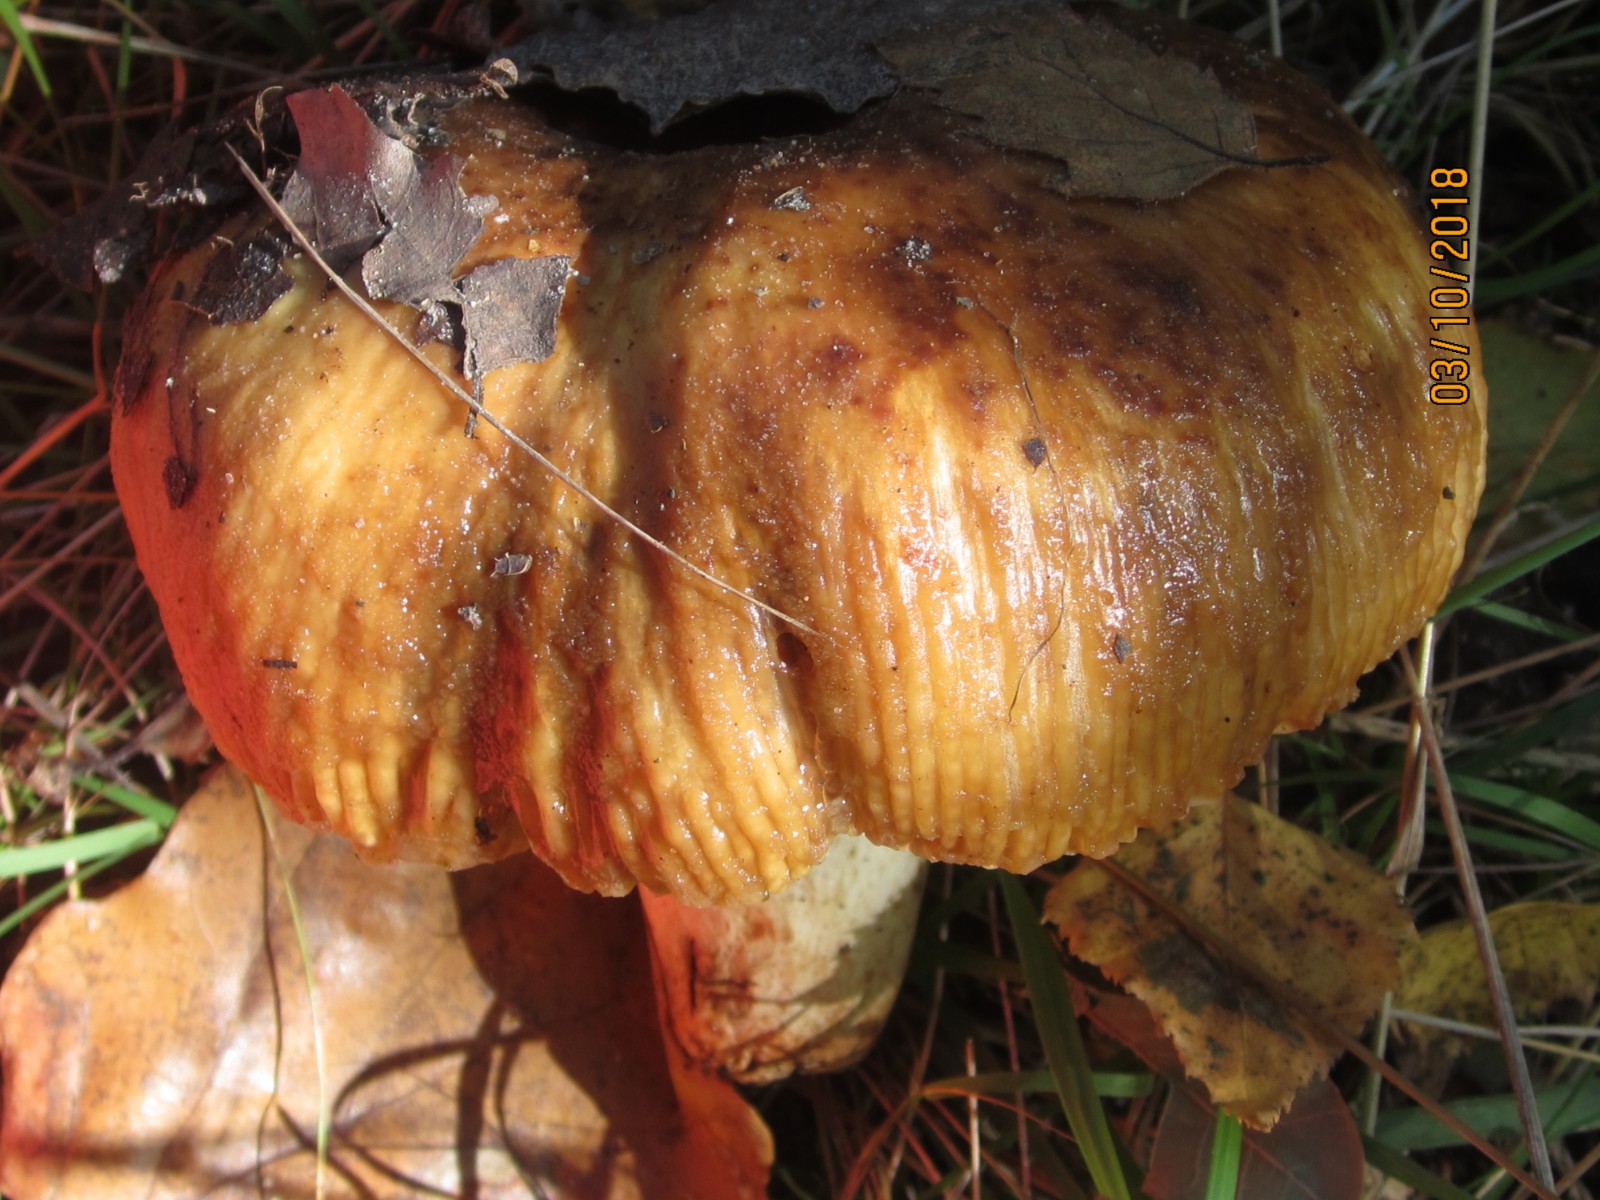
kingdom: Fungi
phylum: Basidiomycota
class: Agaricomycetes
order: Russulales
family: Russulaceae
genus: Russula
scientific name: Russula foetens
